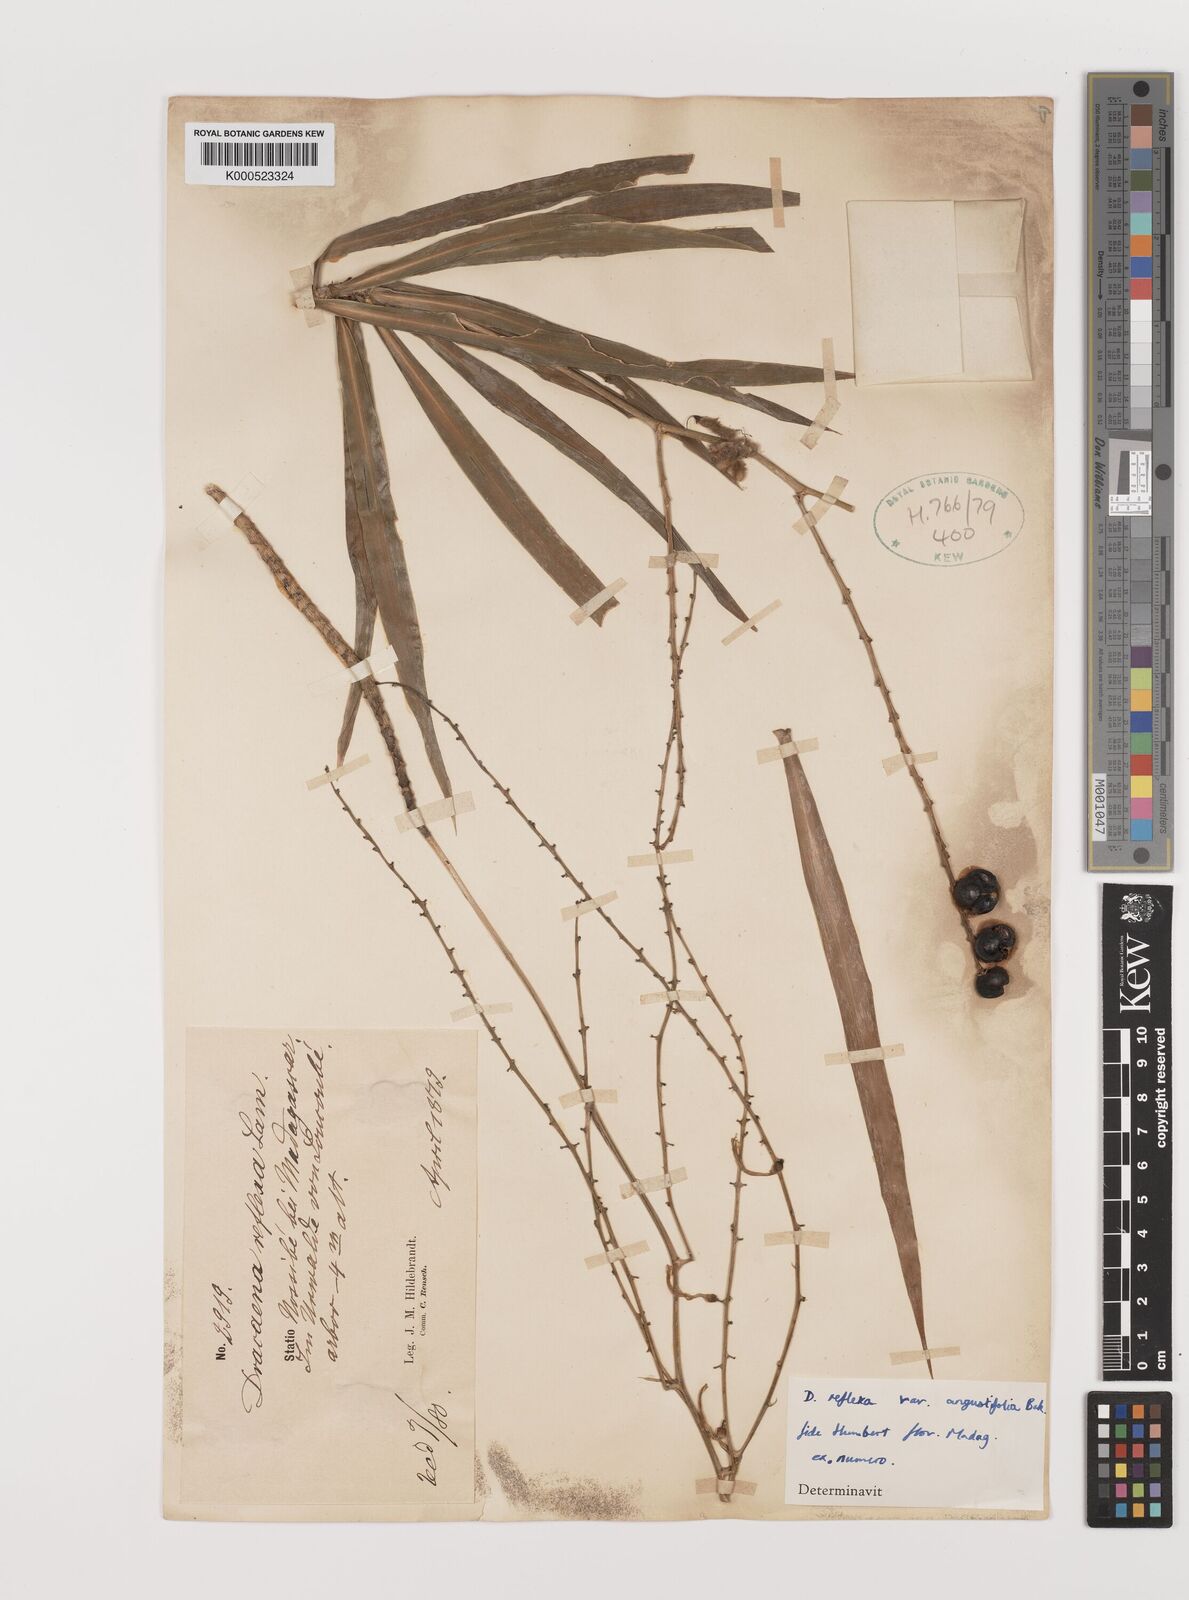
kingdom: Plantae
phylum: Tracheophyta
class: Liliopsida
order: Asparagales
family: Asparagaceae
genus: Dracaena
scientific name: Dracaena reflexa
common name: Song-of-india
